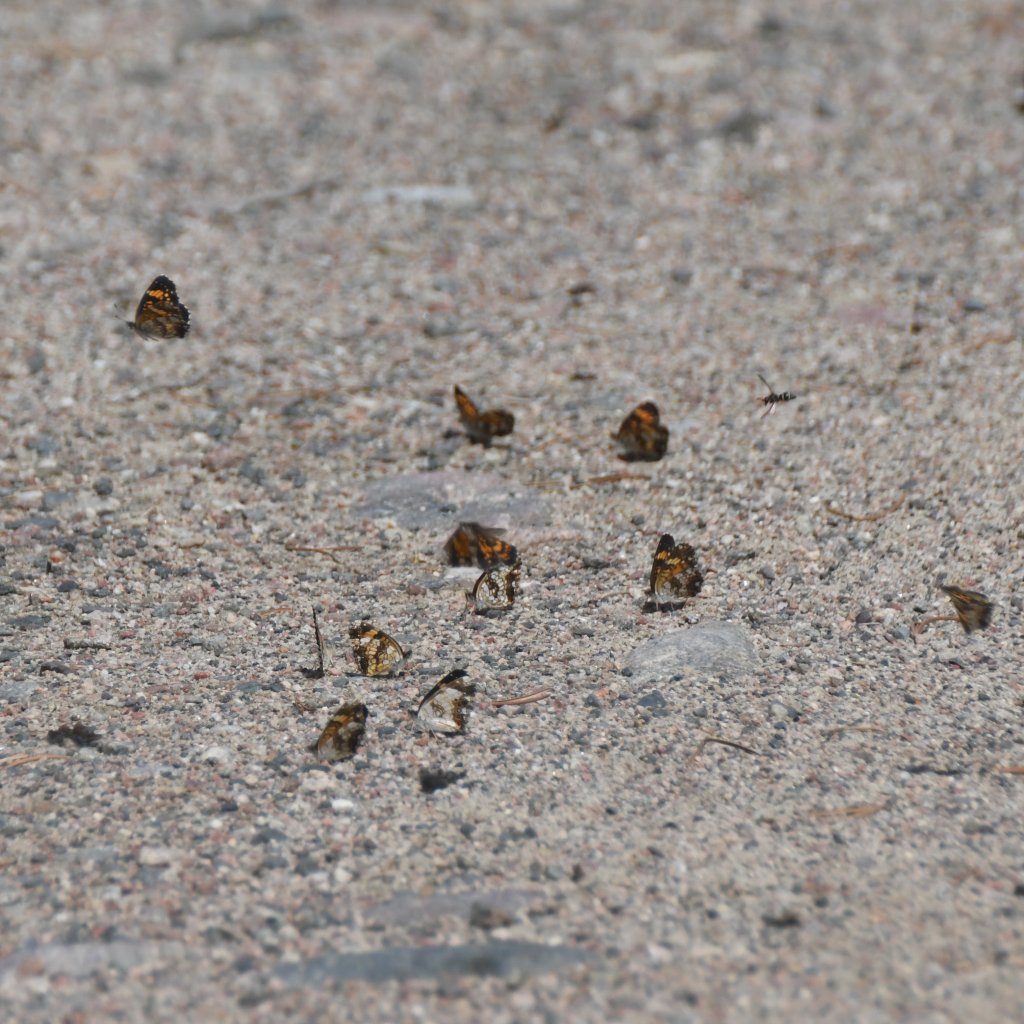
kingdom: Animalia
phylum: Arthropoda
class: Insecta
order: Lepidoptera
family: Nymphalidae
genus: Chlosyne
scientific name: Chlosyne nycteis
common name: Silvery Checkerspot
